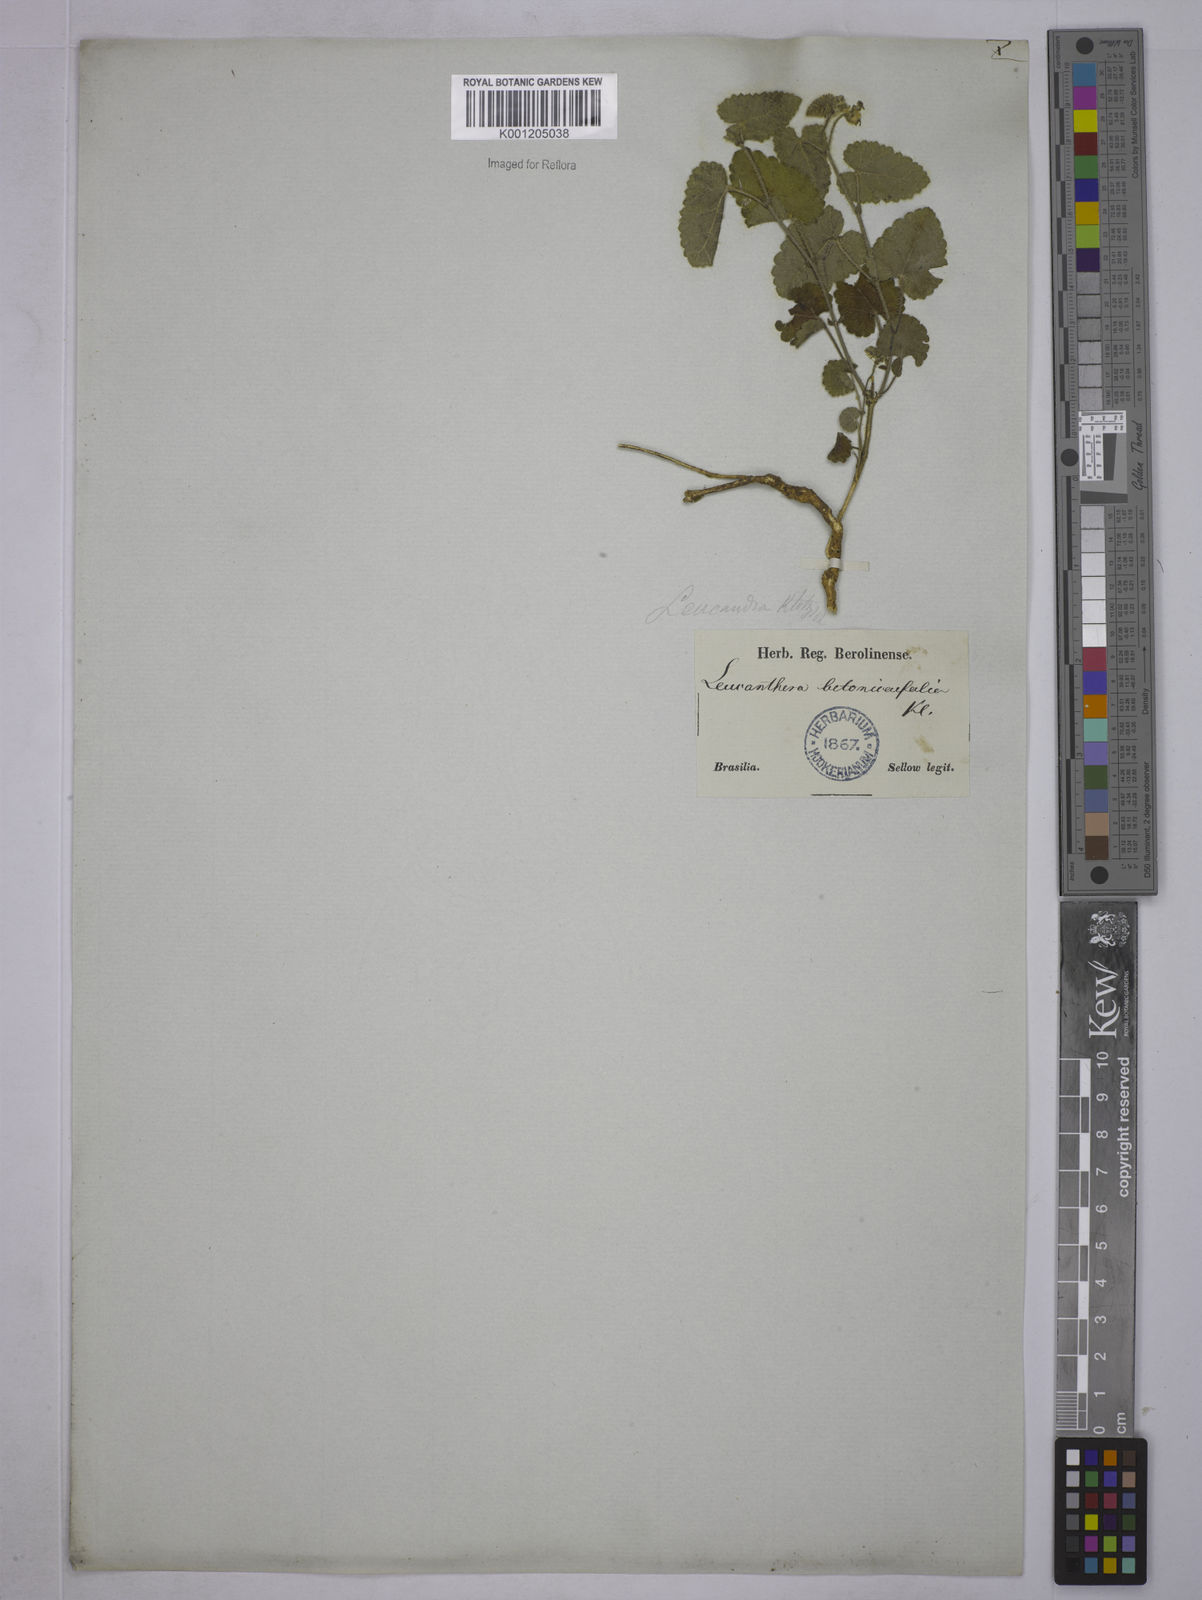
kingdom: Plantae
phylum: Tracheophyta
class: Magnoliopsida
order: Malpighiales
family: Euphorbiaceae
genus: Tragia
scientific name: Tragia betonicifolia
